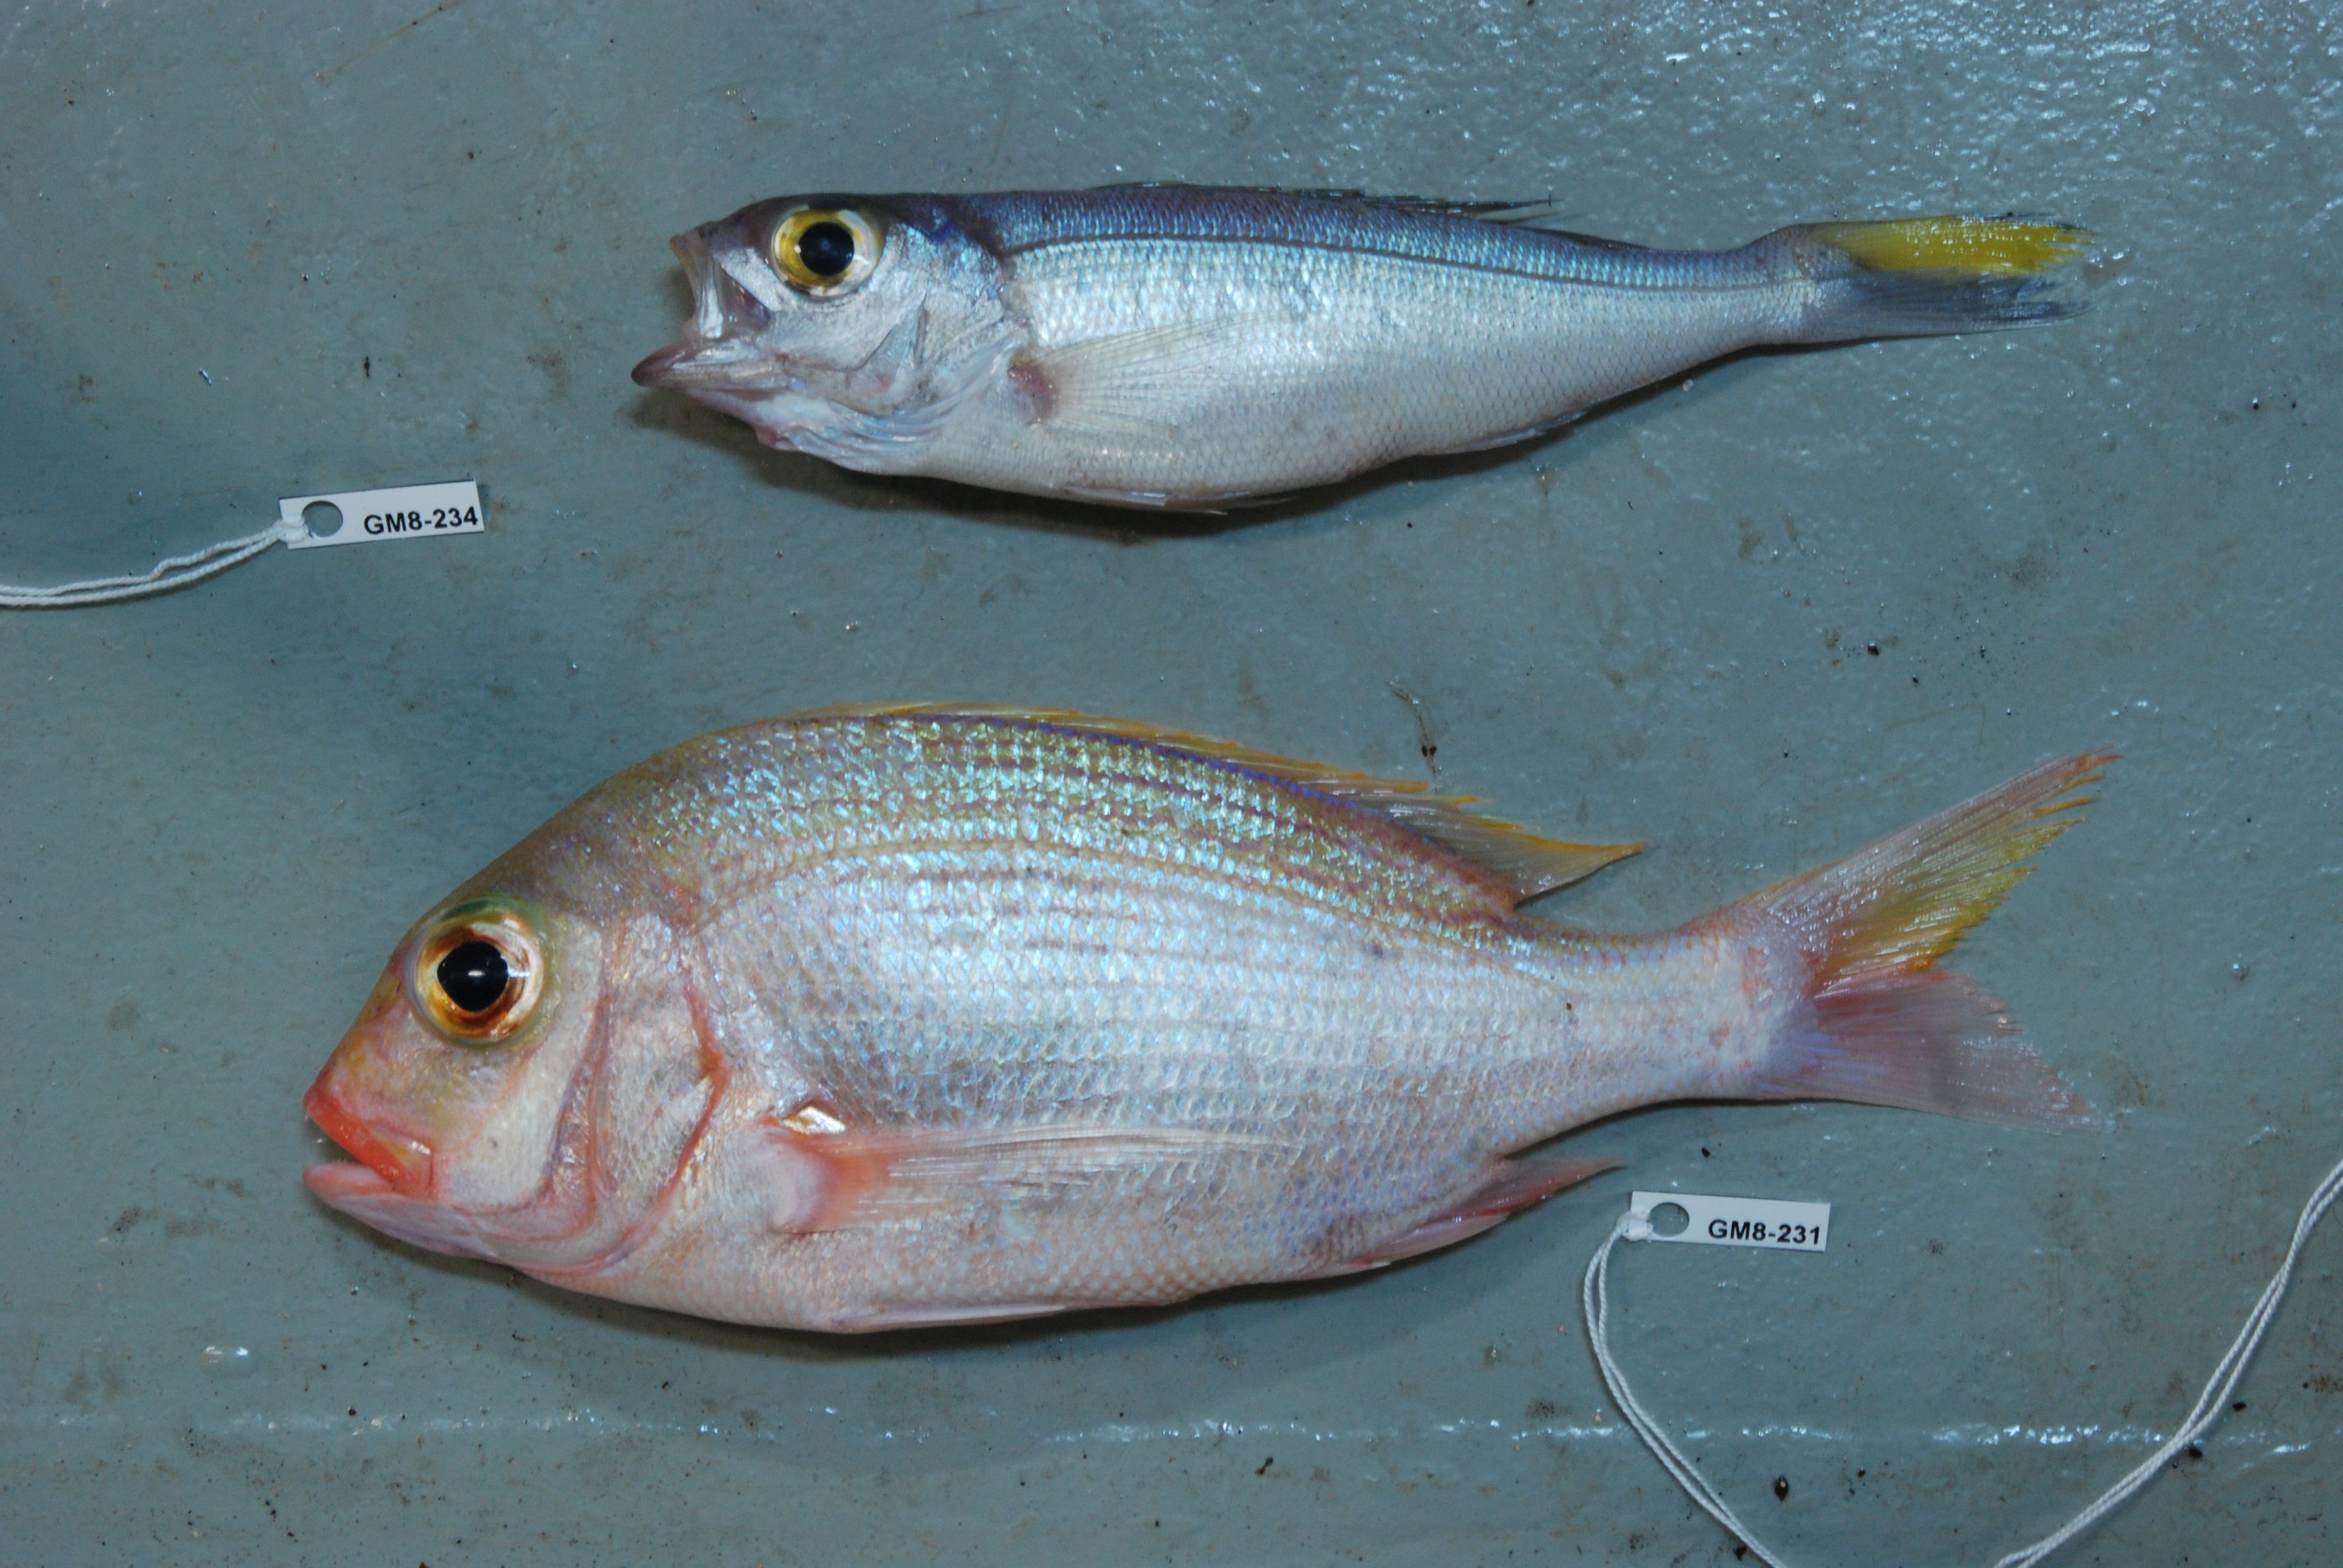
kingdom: Animalia
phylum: Chordata
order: Perciformes
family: Lutjanidae
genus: Pristipomoides
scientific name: Pristipomoides auricilla
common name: Goldflag jobfish
